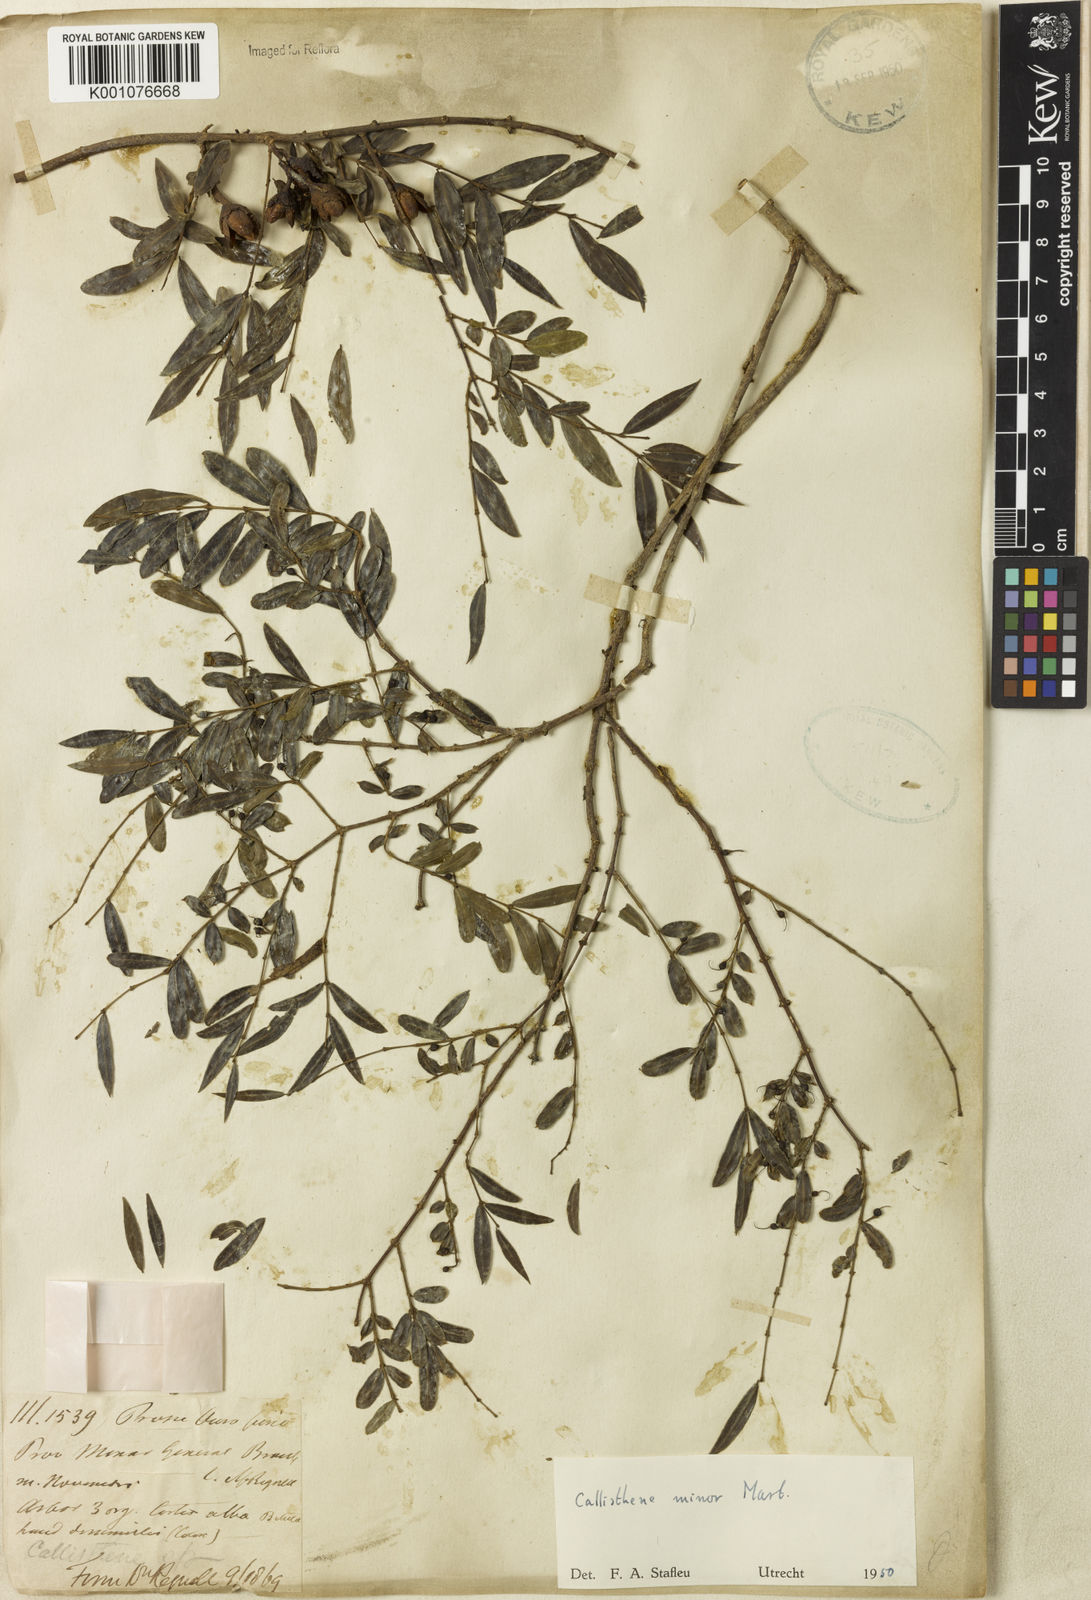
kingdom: Plantae
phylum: Tracheophyta
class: Magnoliopsida
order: Myrtales
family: Vochysiaceae
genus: Callisthene
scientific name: Callisthene minor
